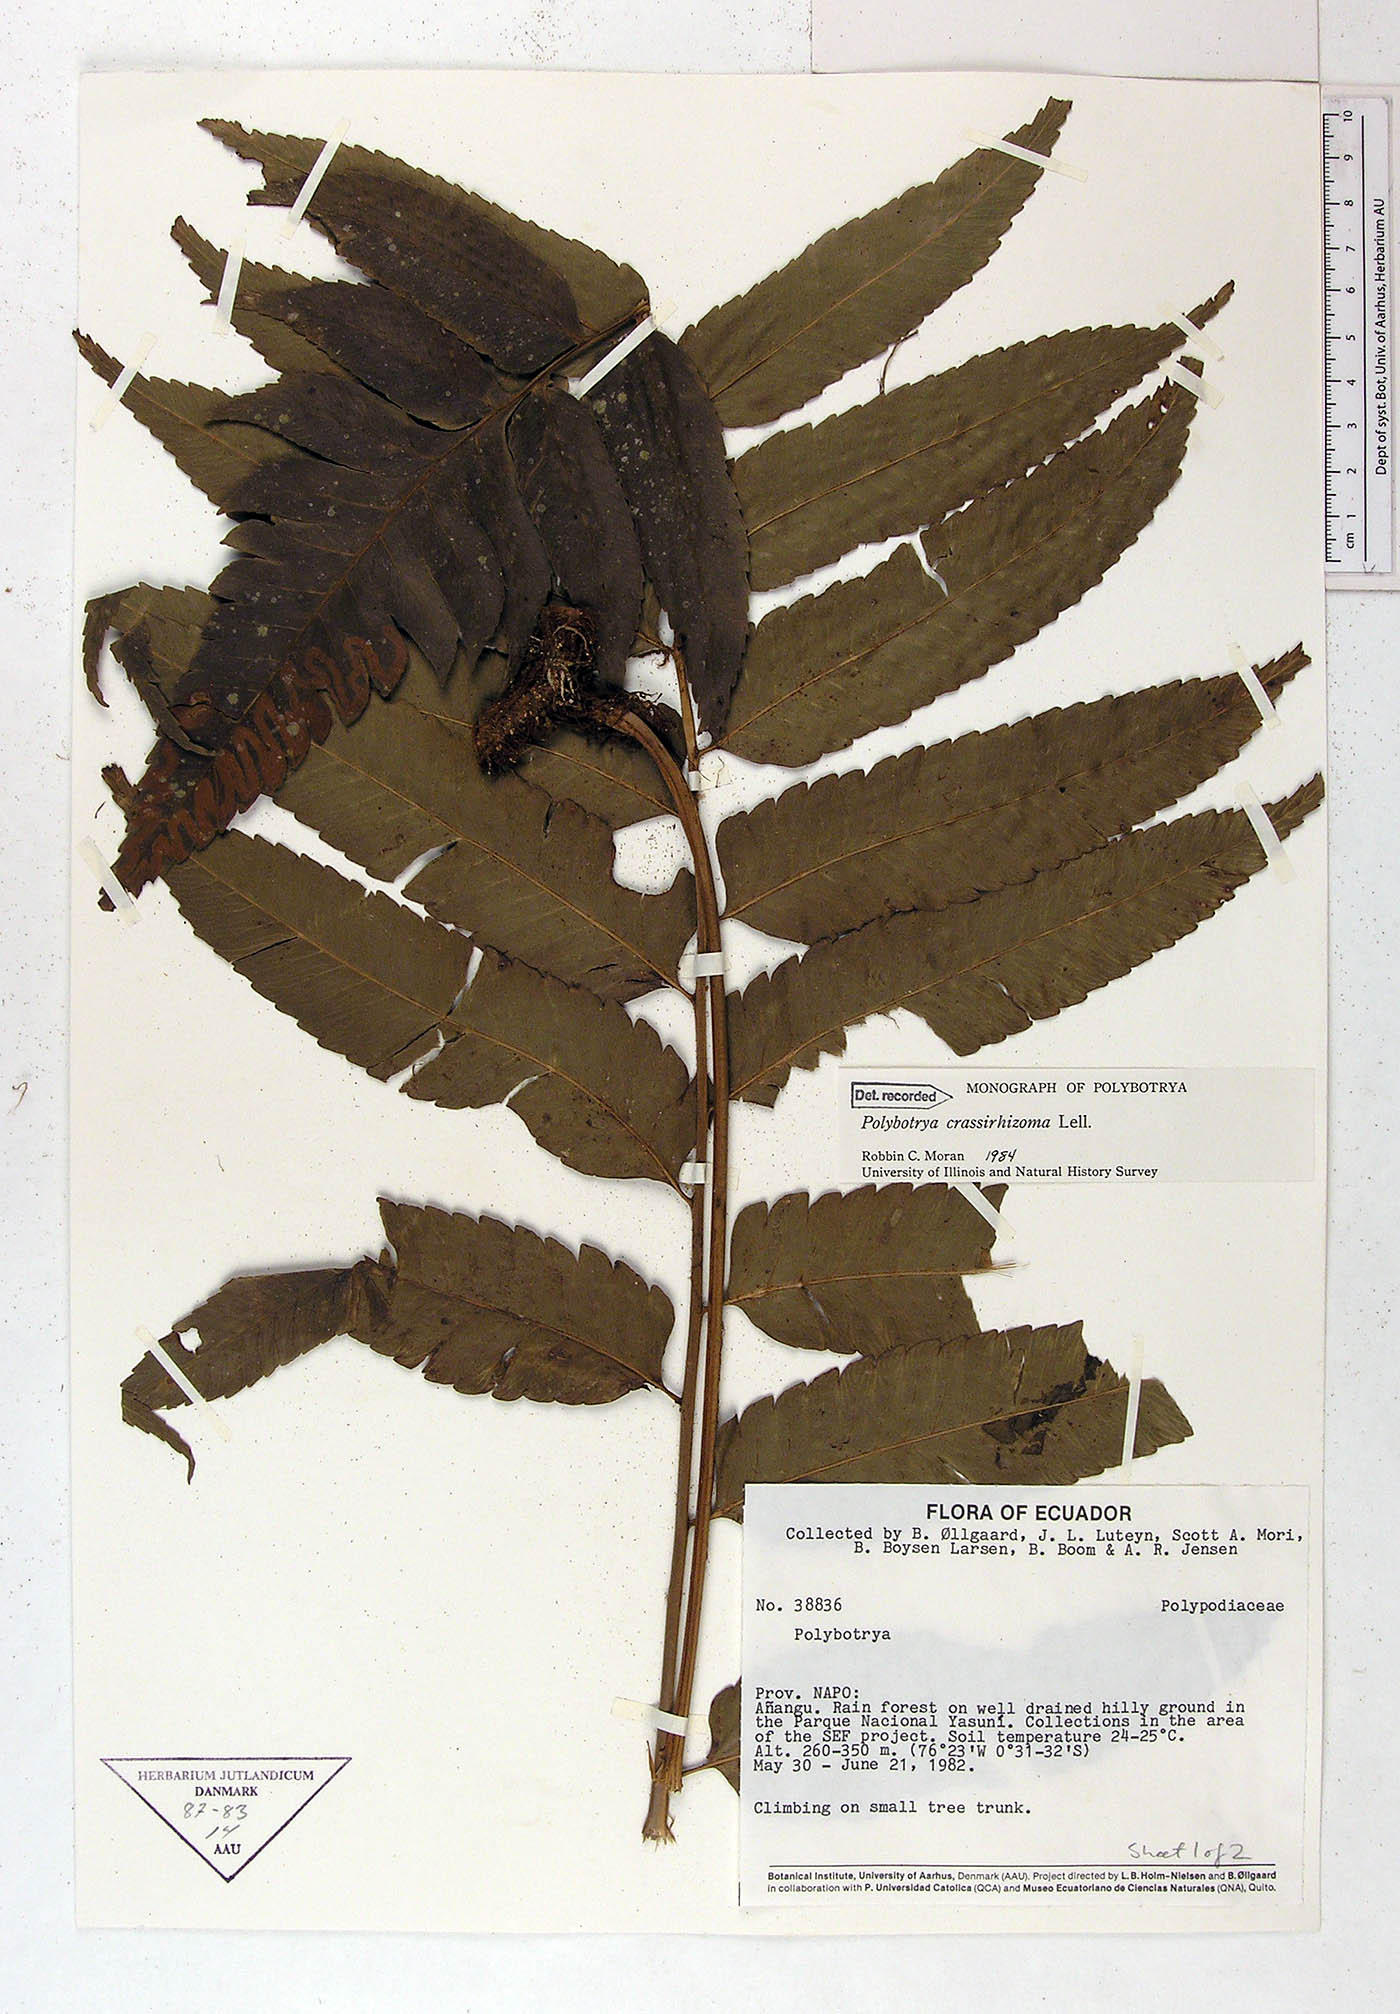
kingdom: Plantae
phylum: Tracheophyta
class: Polypodiopsida
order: Polypodiales
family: Dryopteridaceae
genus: Polybotrya
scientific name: Polybotrya crassirhizoma
